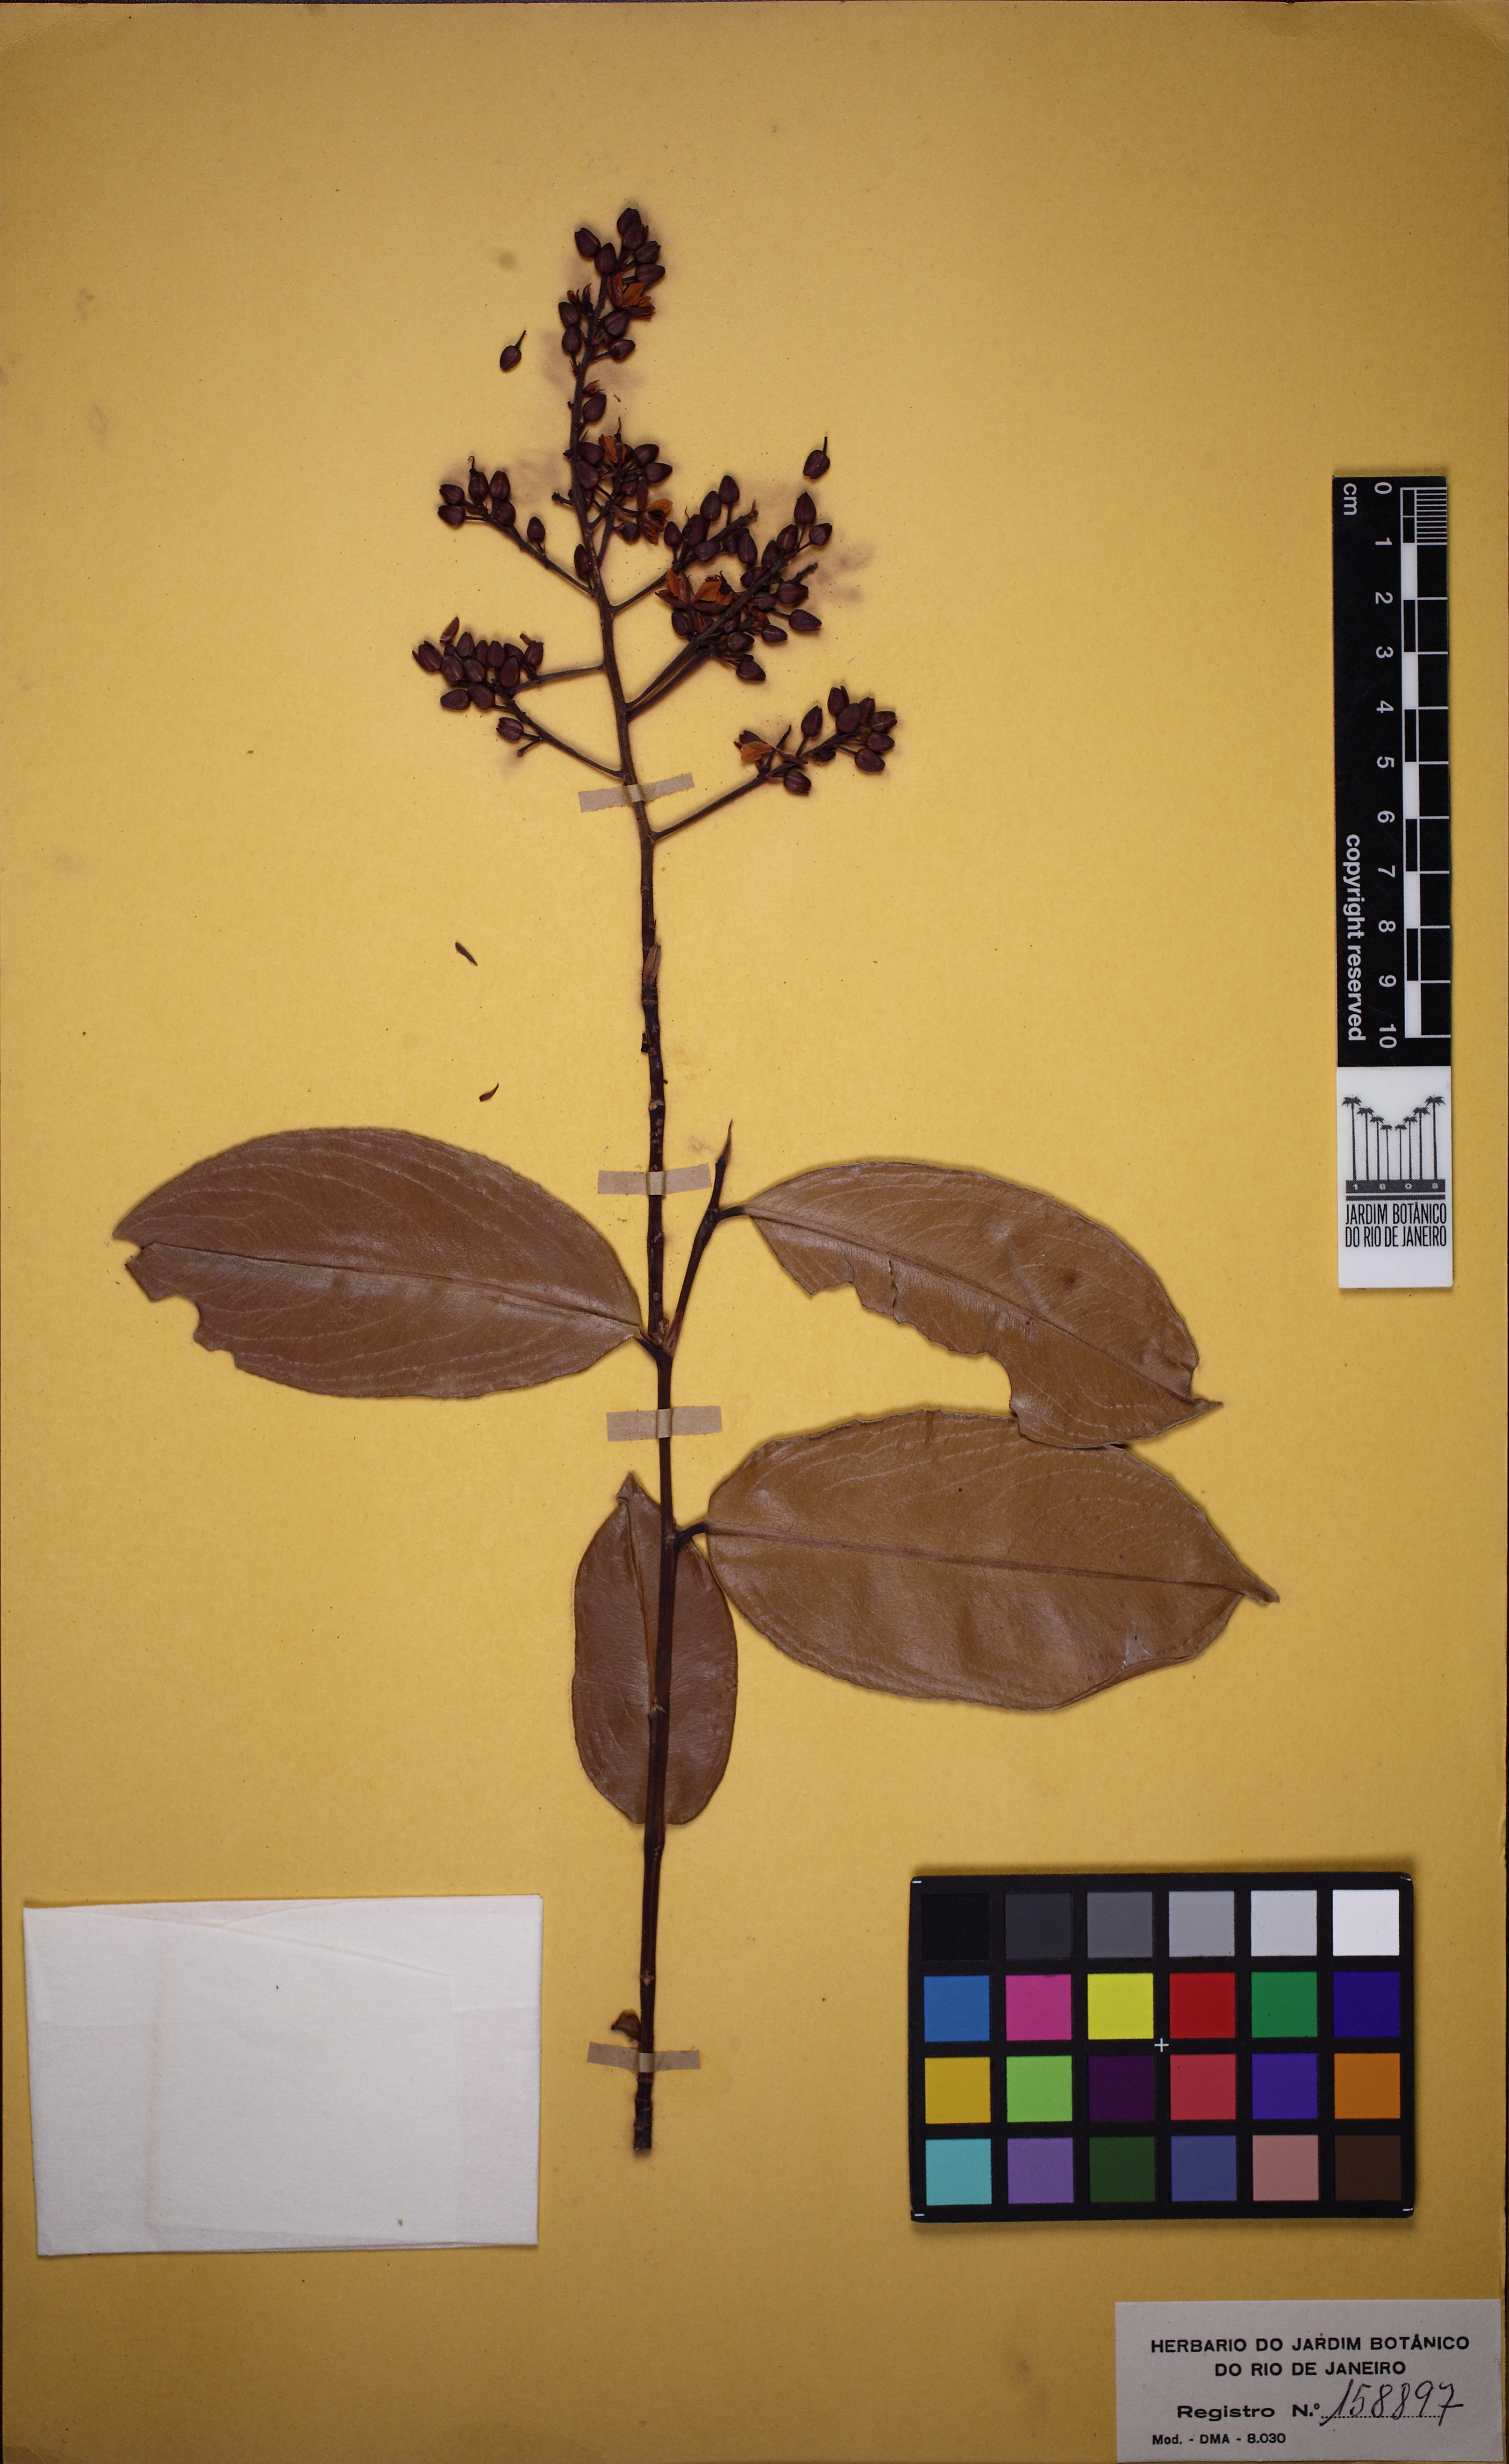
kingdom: Plantae
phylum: Tracheophyta
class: Magnoliopsida
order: Malpighiales
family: Ochnaceae
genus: Ouratea
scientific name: Ouratea cuspidata
